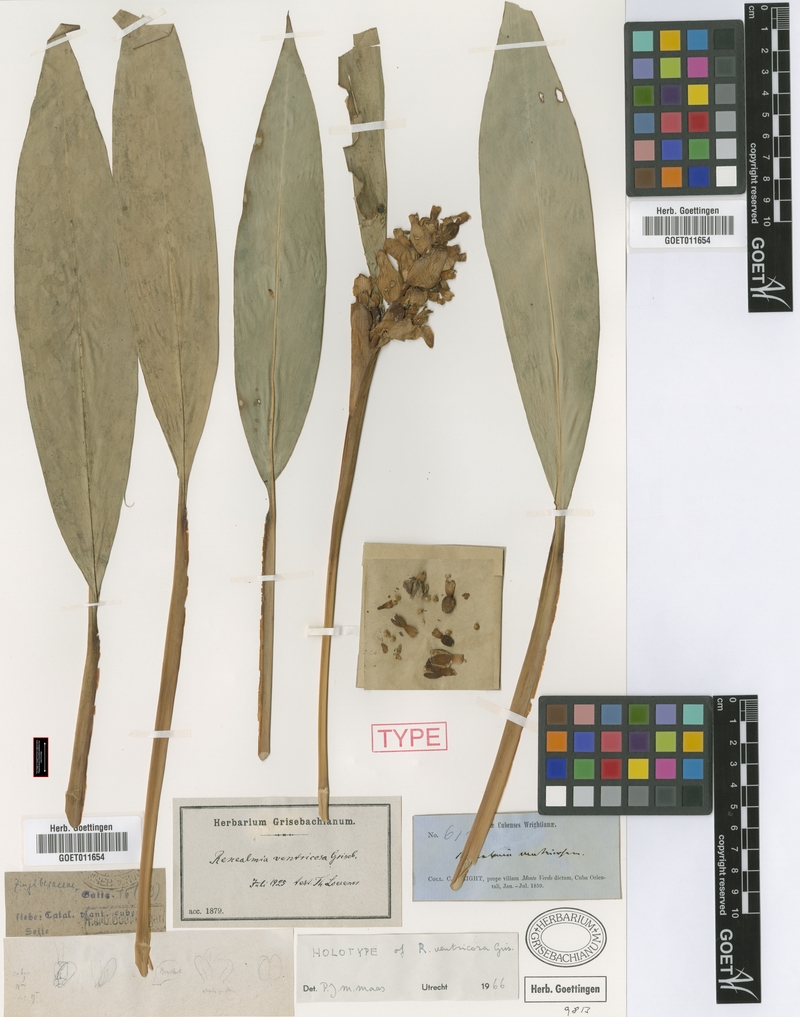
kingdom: Plantae
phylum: Tracheophyta
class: Liliopsida
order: Zingiberales
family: Zingiberaceae
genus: Renealmia
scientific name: Renealmia jamaicensis
